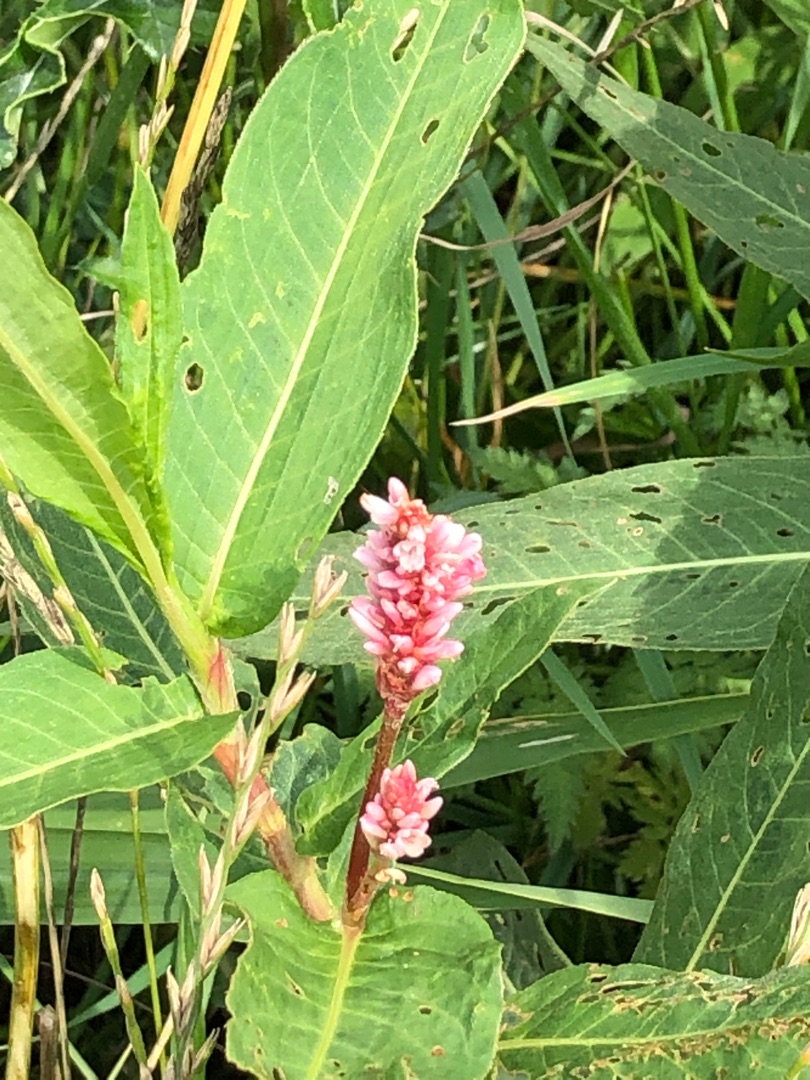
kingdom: Plantae
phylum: Tracheophyta
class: Magnoliopsida
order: Caryophyllales
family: Polygonaceae
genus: Persicaria
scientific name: Persicaria amphibia
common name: Vand-pileurt
